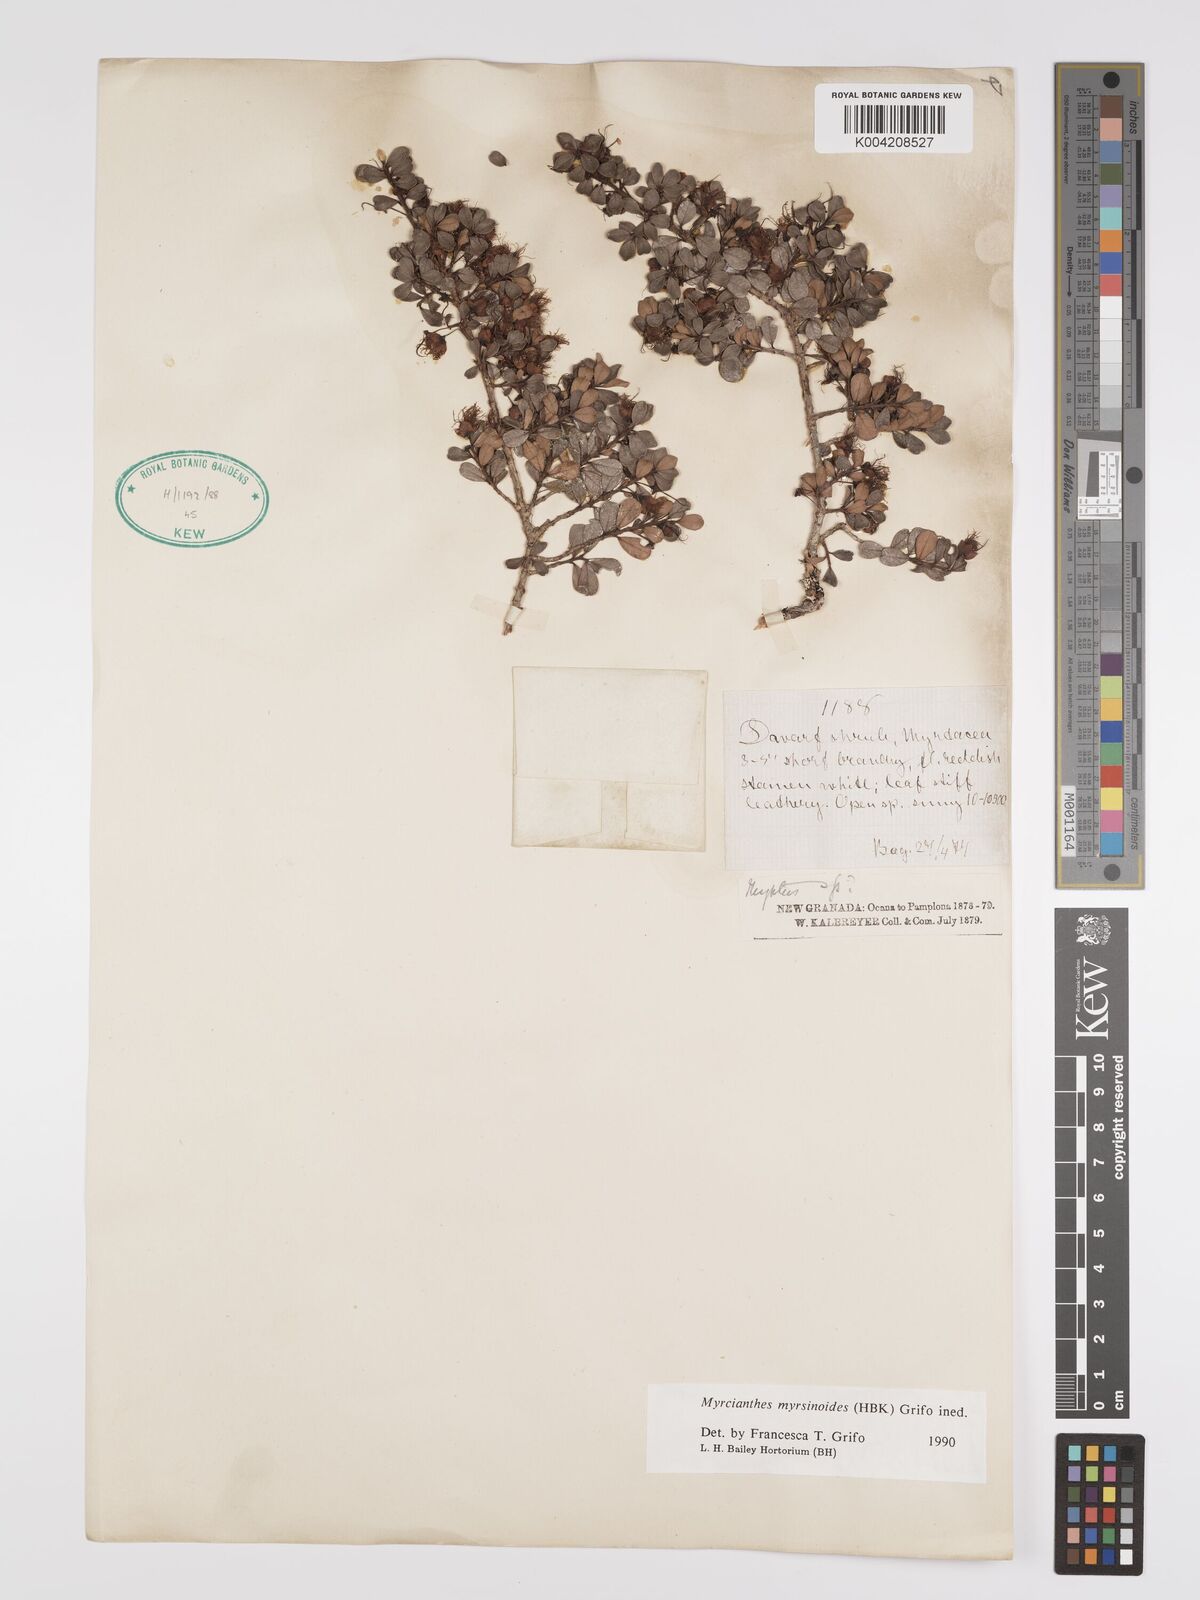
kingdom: Plantae
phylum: Tracheophyta
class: Magnoliopsida
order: Myrtales
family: Myrtaceae
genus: Myrcianthes
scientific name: Myrcianthes myrsinoides
